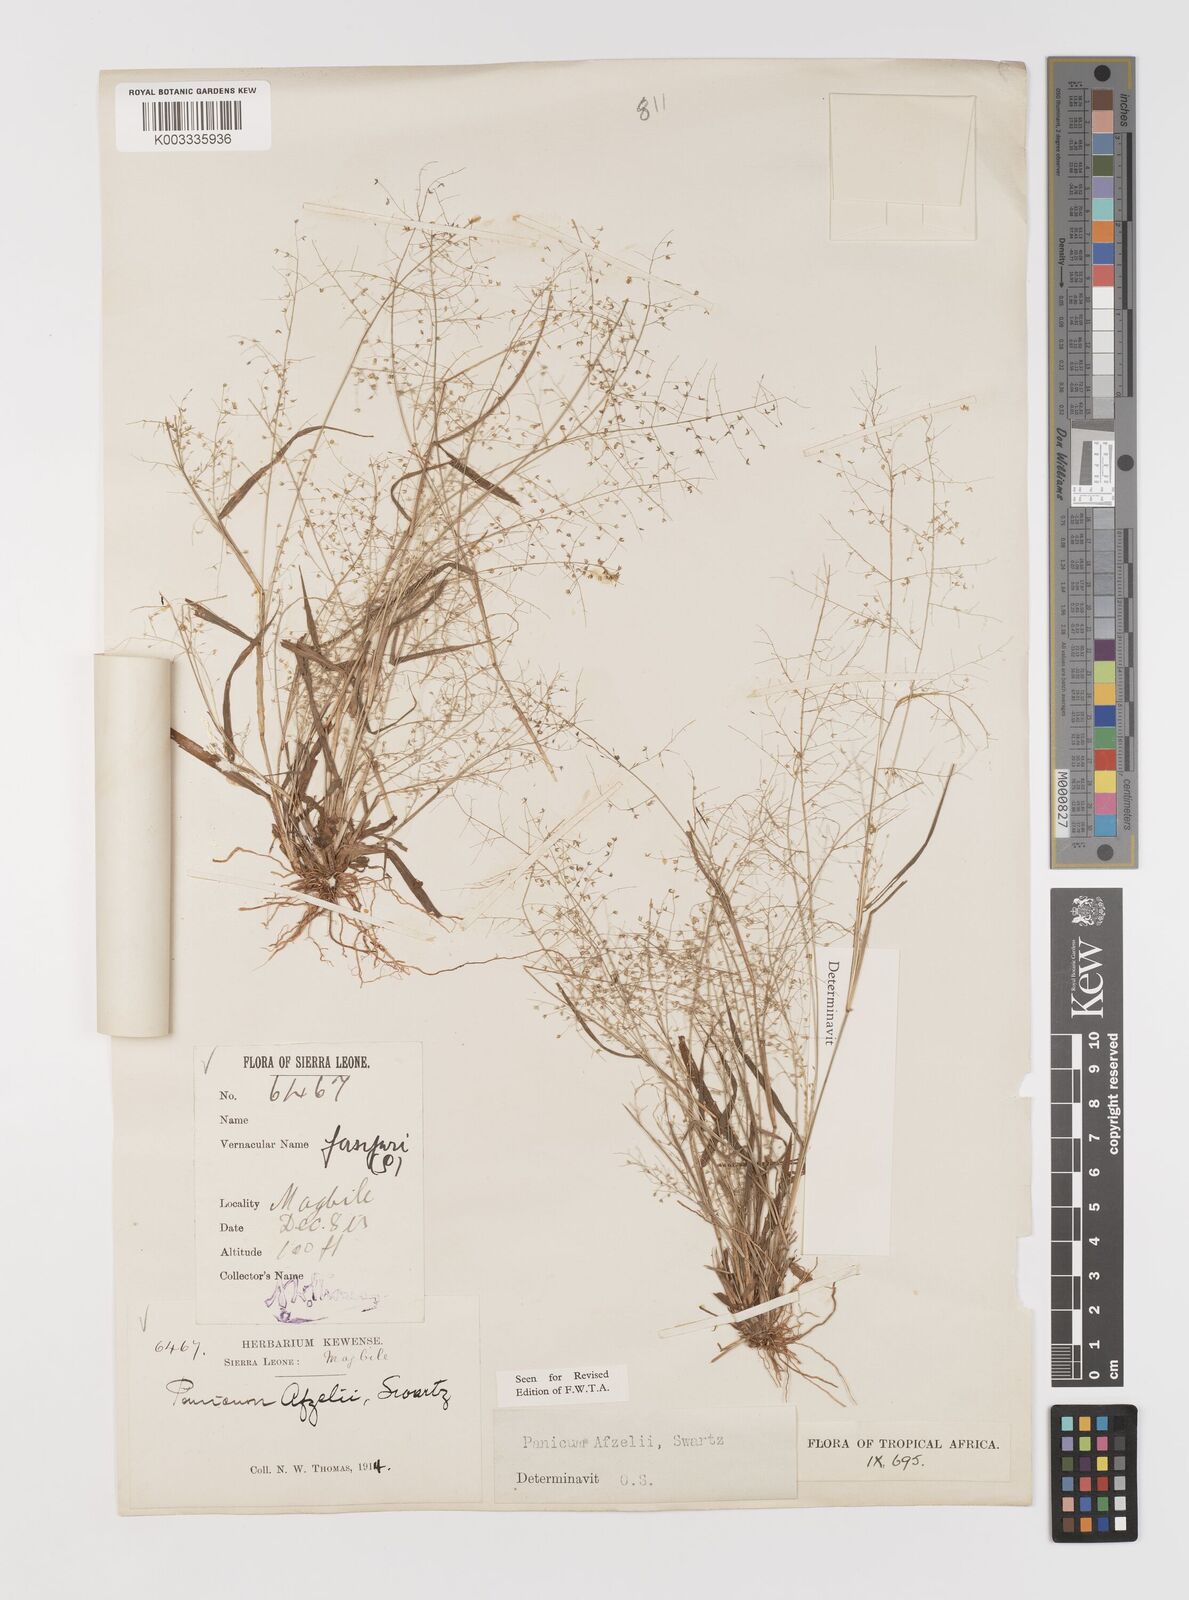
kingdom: Plantae
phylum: Tracheophyta
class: Liliopsida
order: Poales
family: Poaceae
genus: Panicum
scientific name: Panicum afzelii
